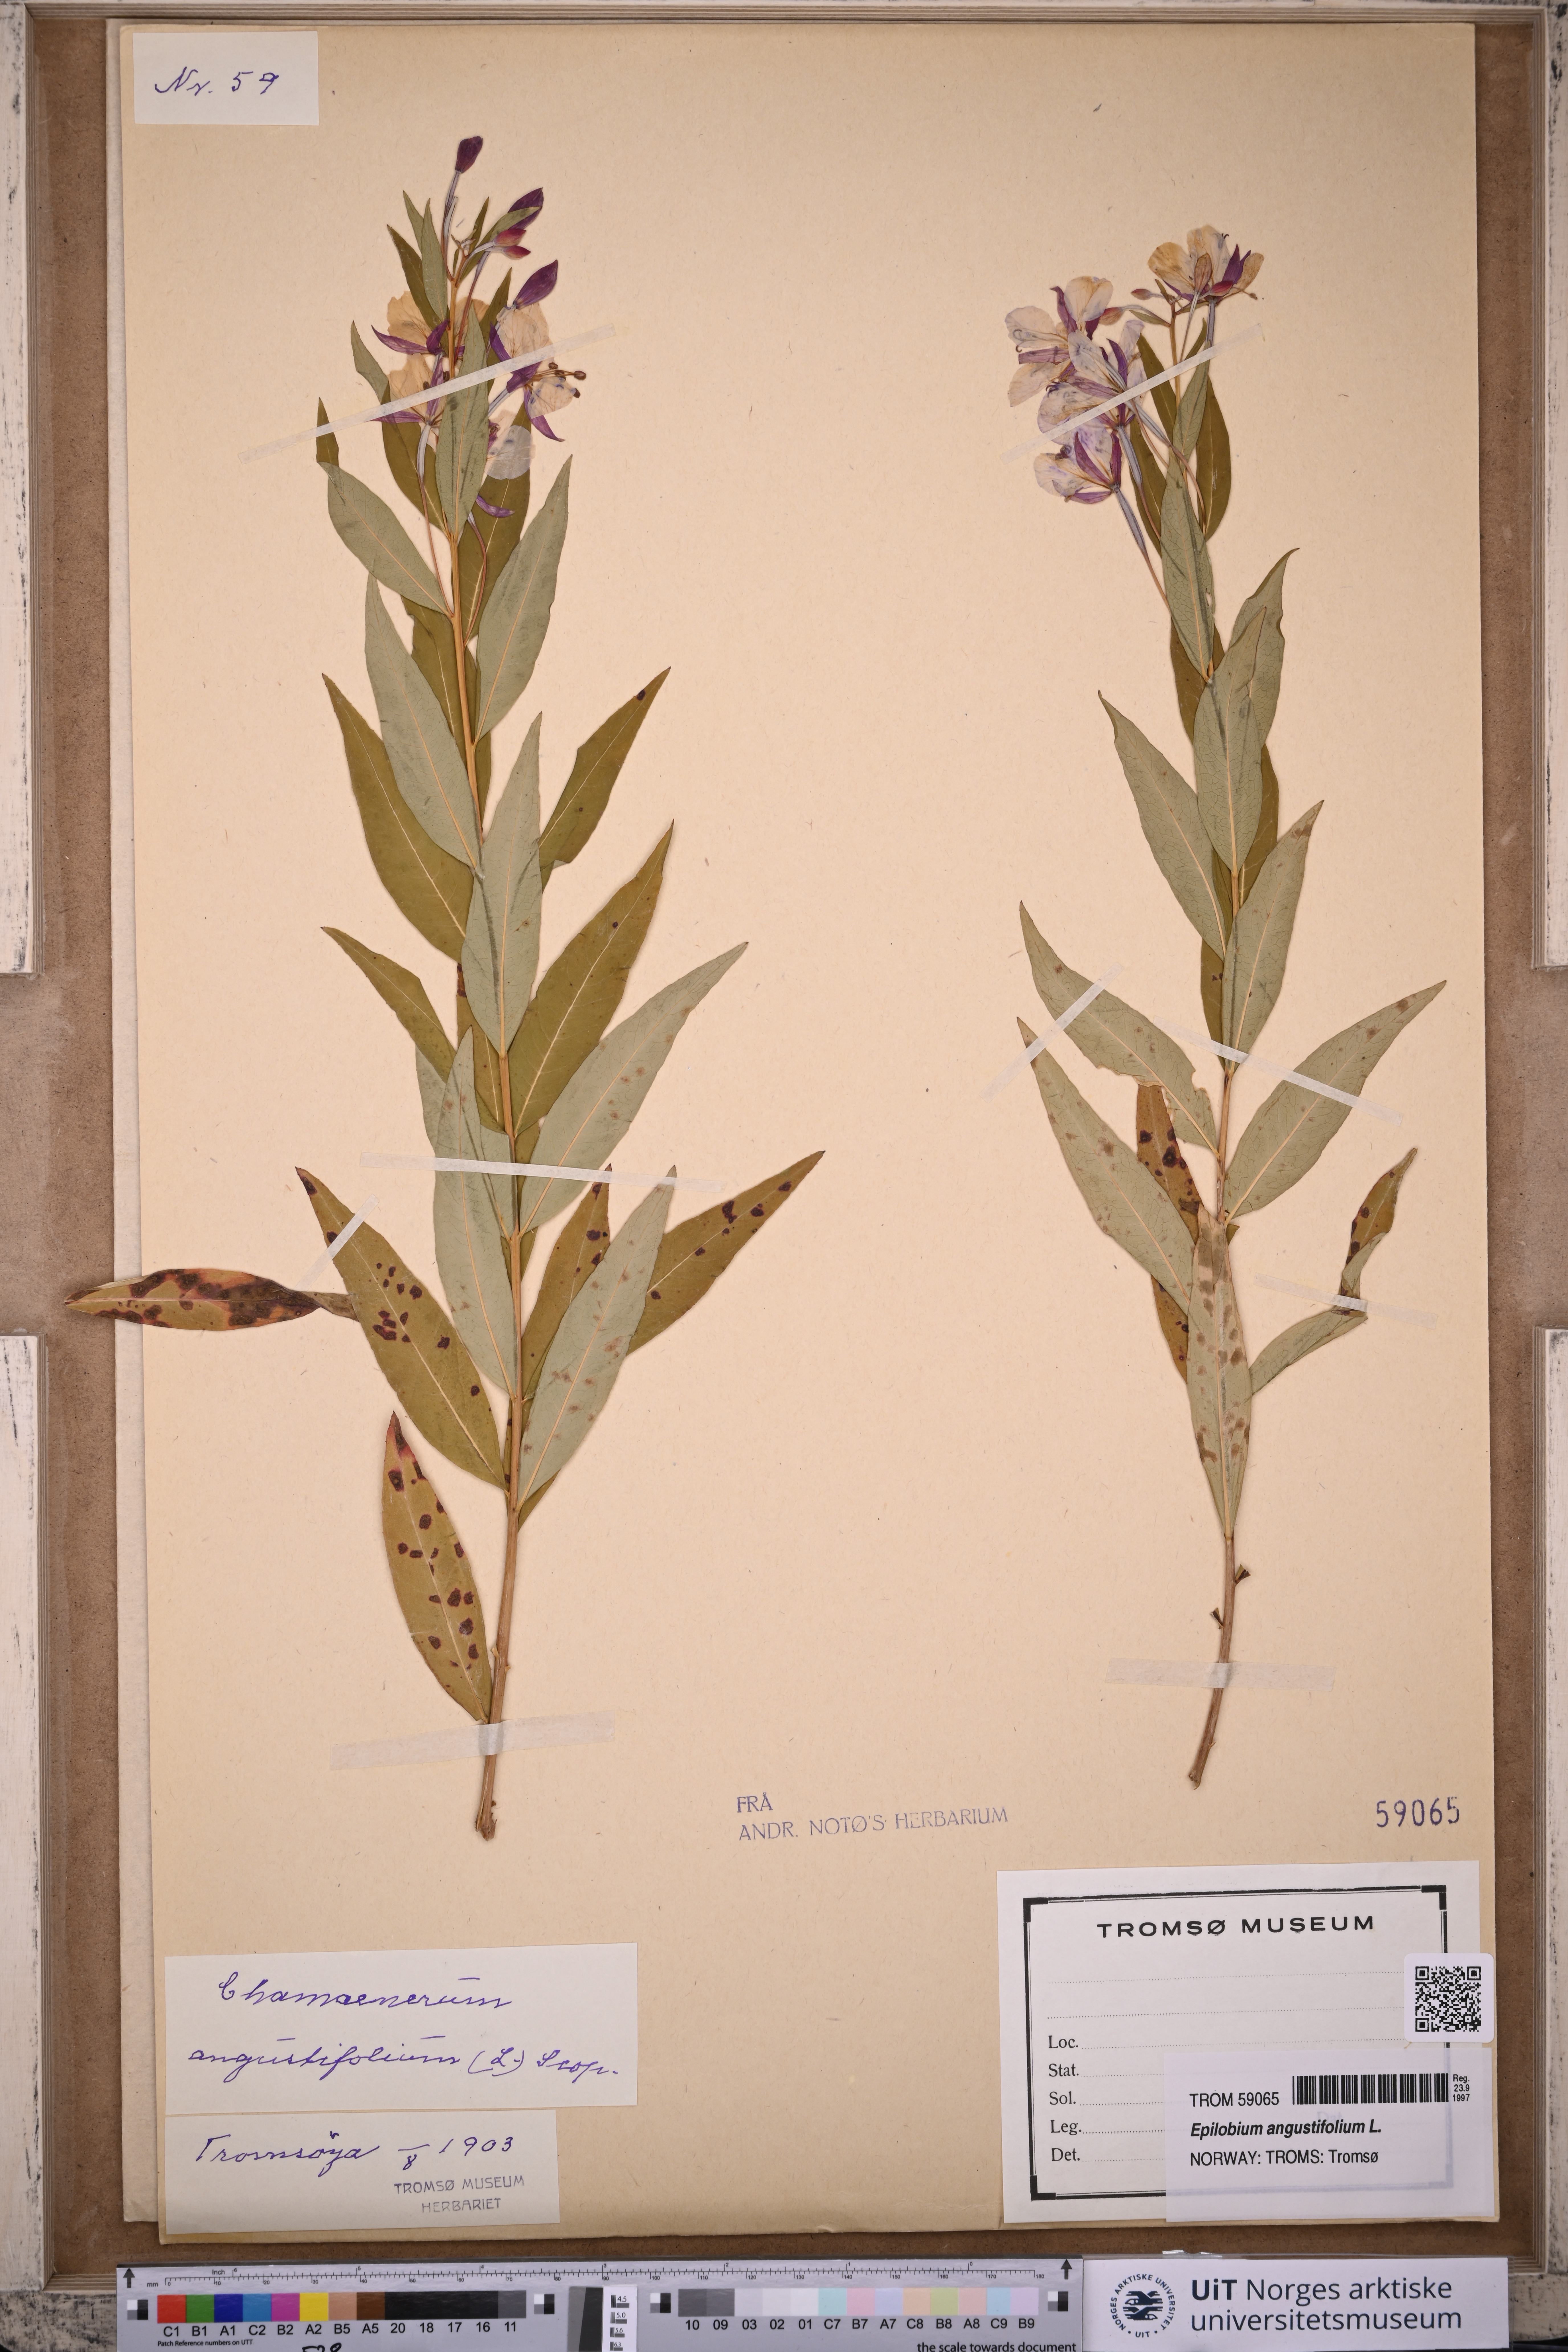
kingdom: Plantae
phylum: Tracheophyta
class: Magnoliopsida
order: Myrtales
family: Onagraceae
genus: Chamaenerion
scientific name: Chamaenerion angustifolium
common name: Fireweed
